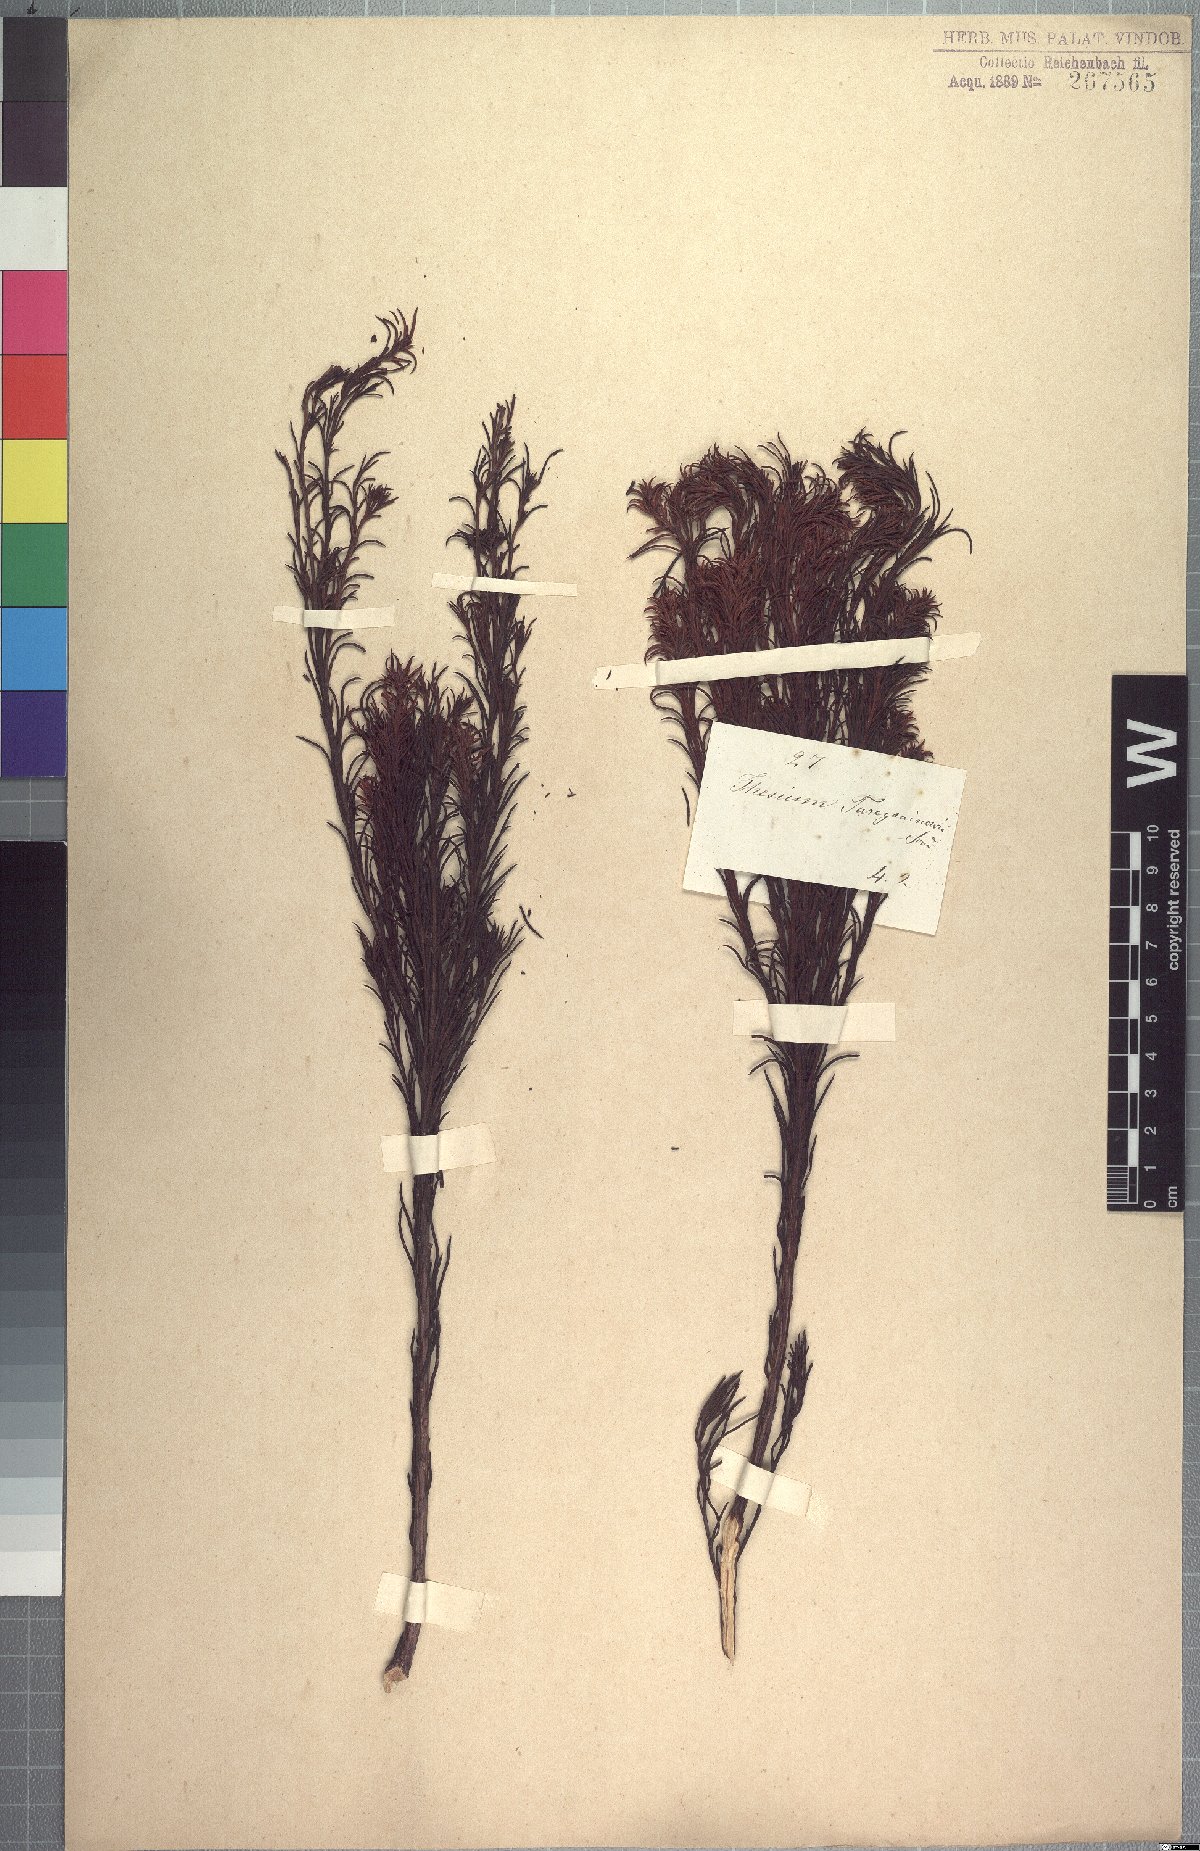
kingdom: Plantae
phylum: Tracheophyta
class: Magnoliopsida
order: Santalales
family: Thesiaceae
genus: Thesium
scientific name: Thesium turczaninowii
